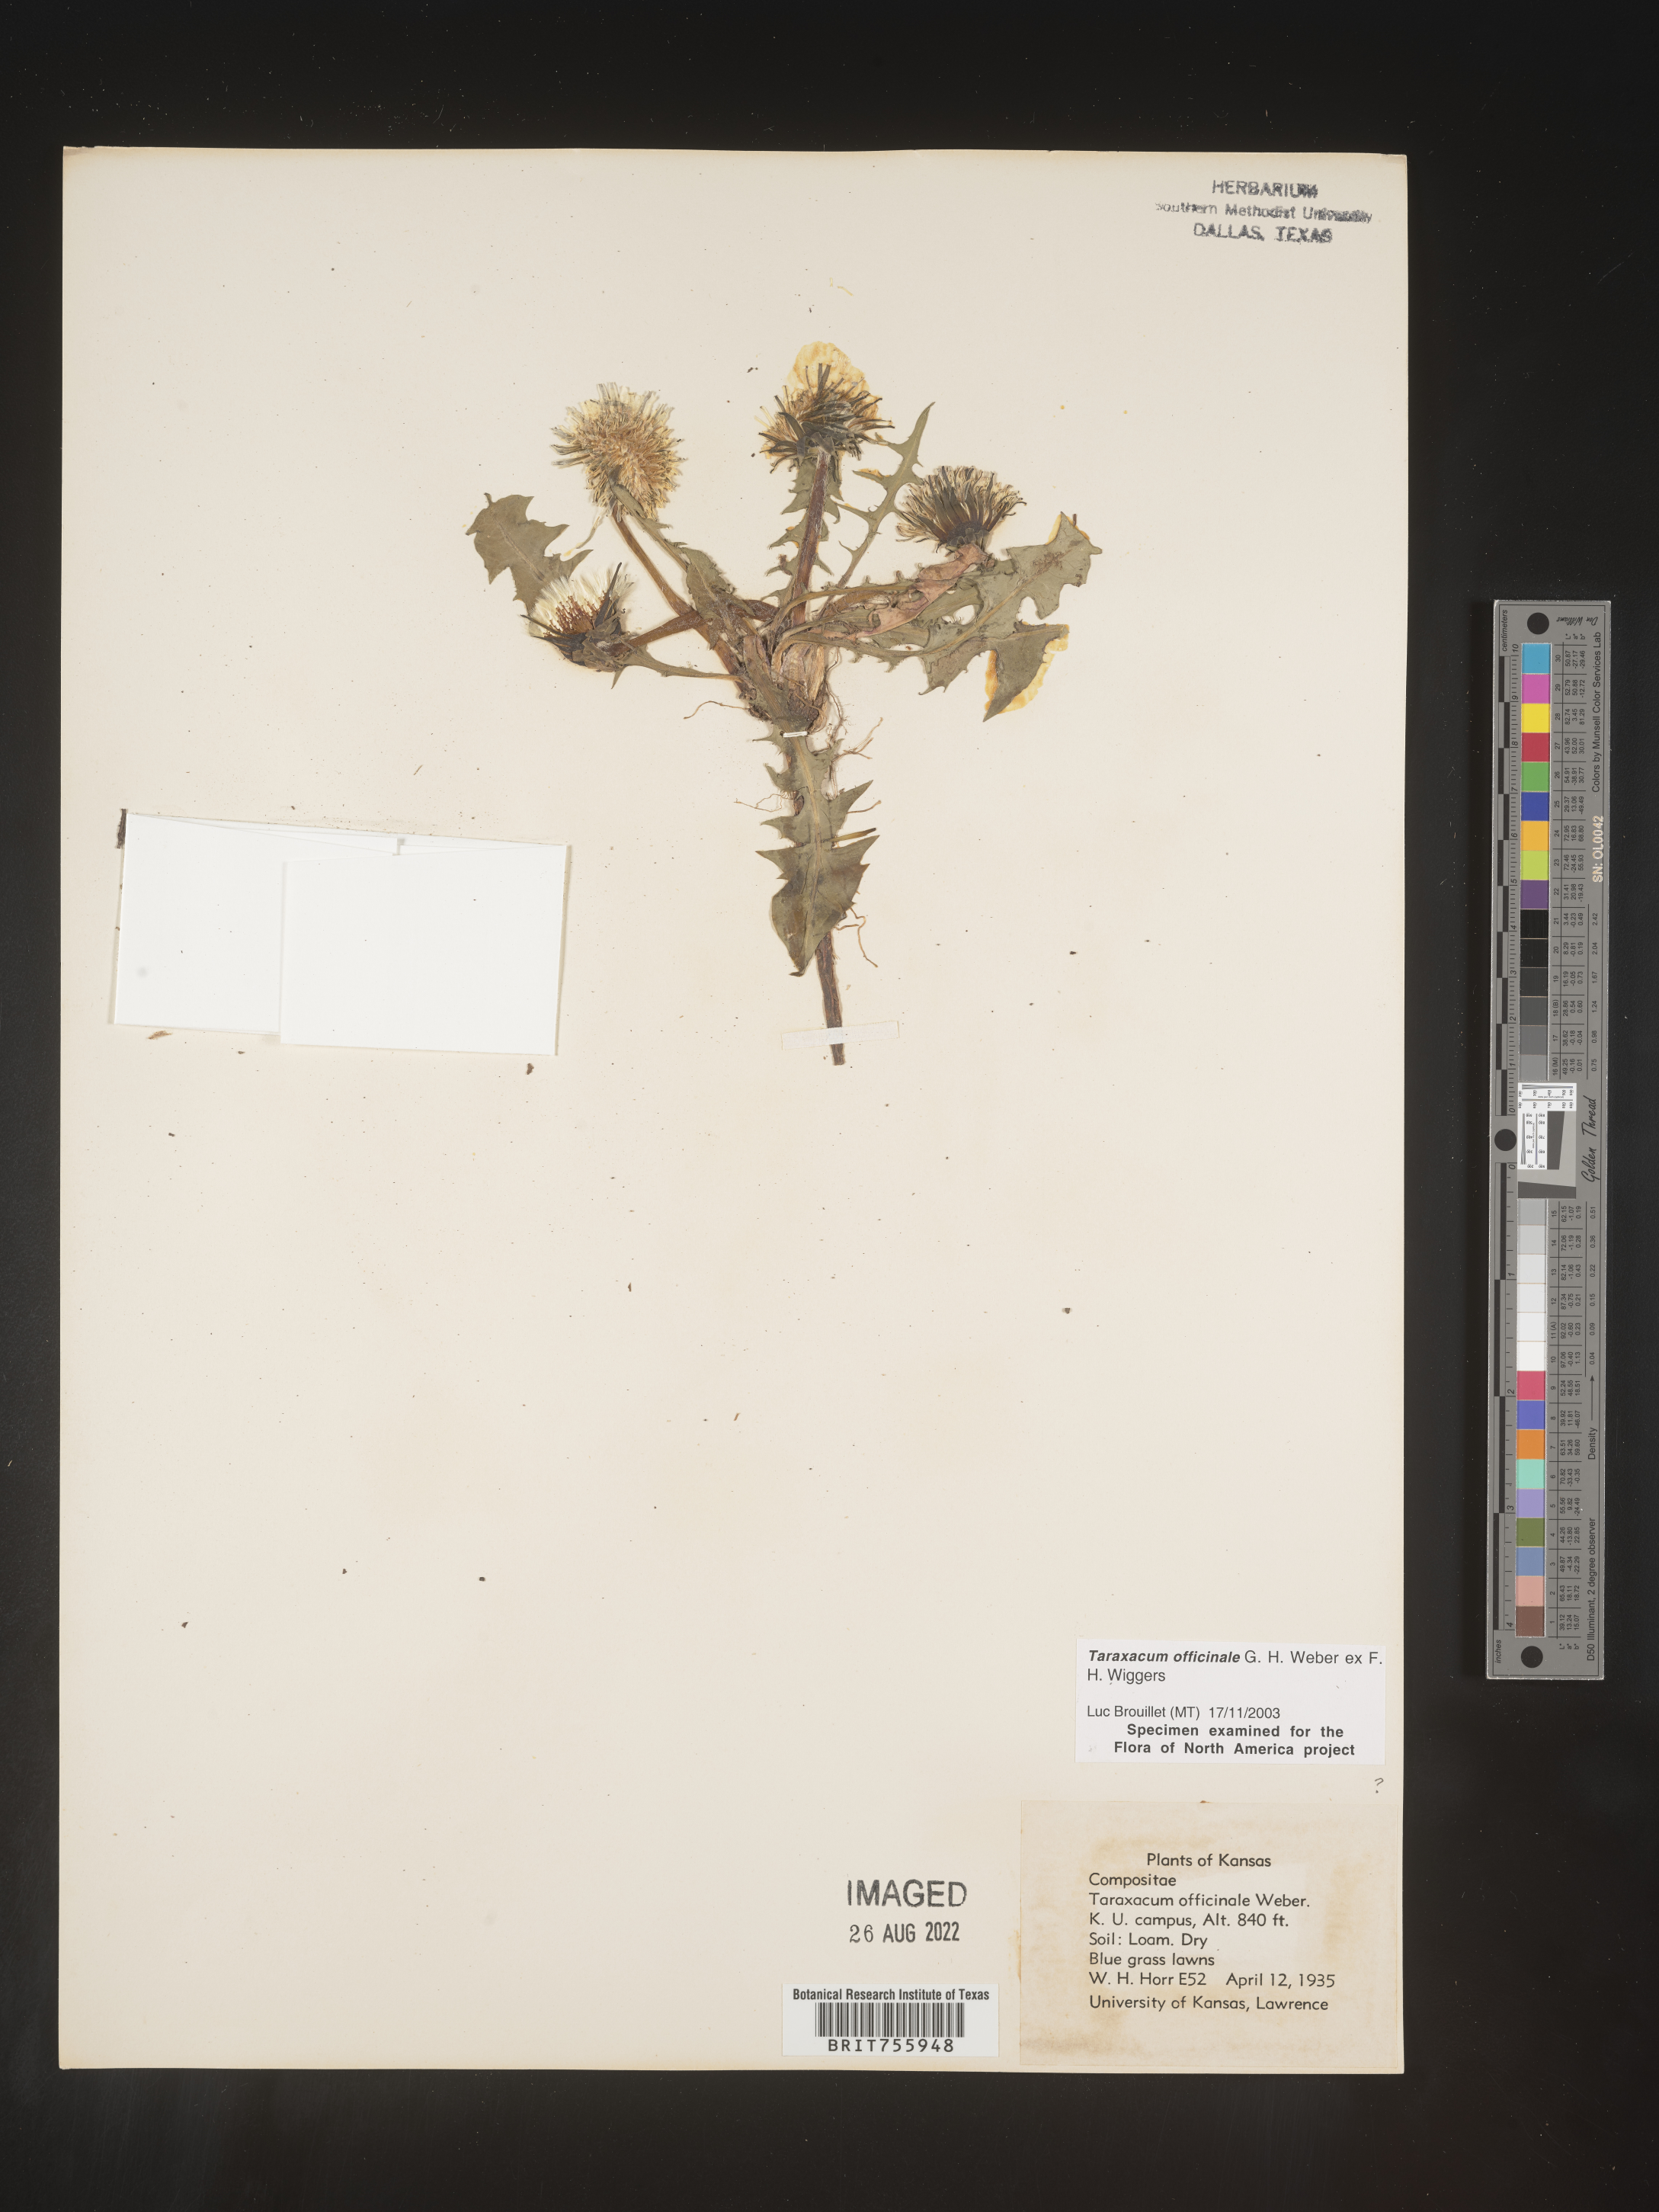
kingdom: Plantae
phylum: Tracheophyta
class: Magnoliopsida
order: Asterales
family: Asteraceae
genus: Taraxacum
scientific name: Taraxacum officinale
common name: Common dandelion
